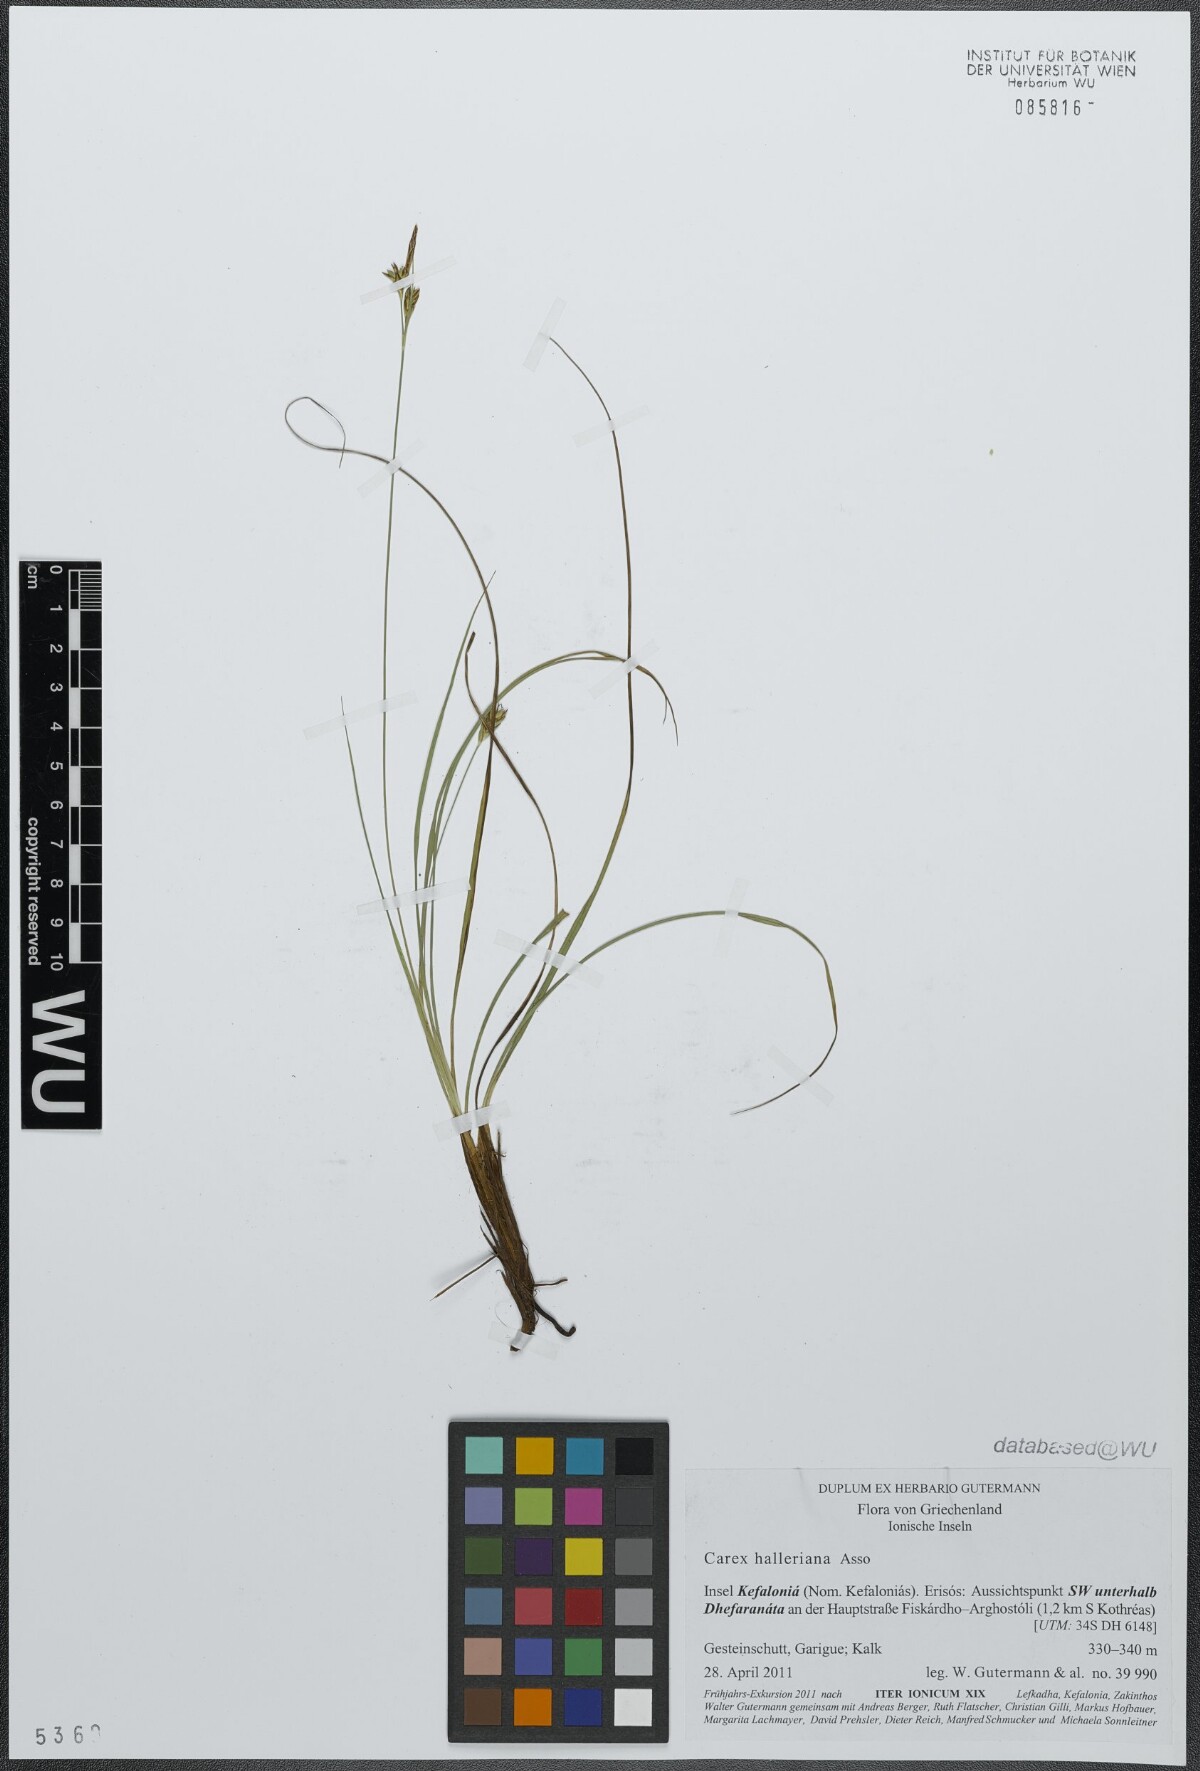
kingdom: Plantae
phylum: Tracheophyta
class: Liliopsida
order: Poales
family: Cyperaceae
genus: Carex
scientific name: Carex halleriana
